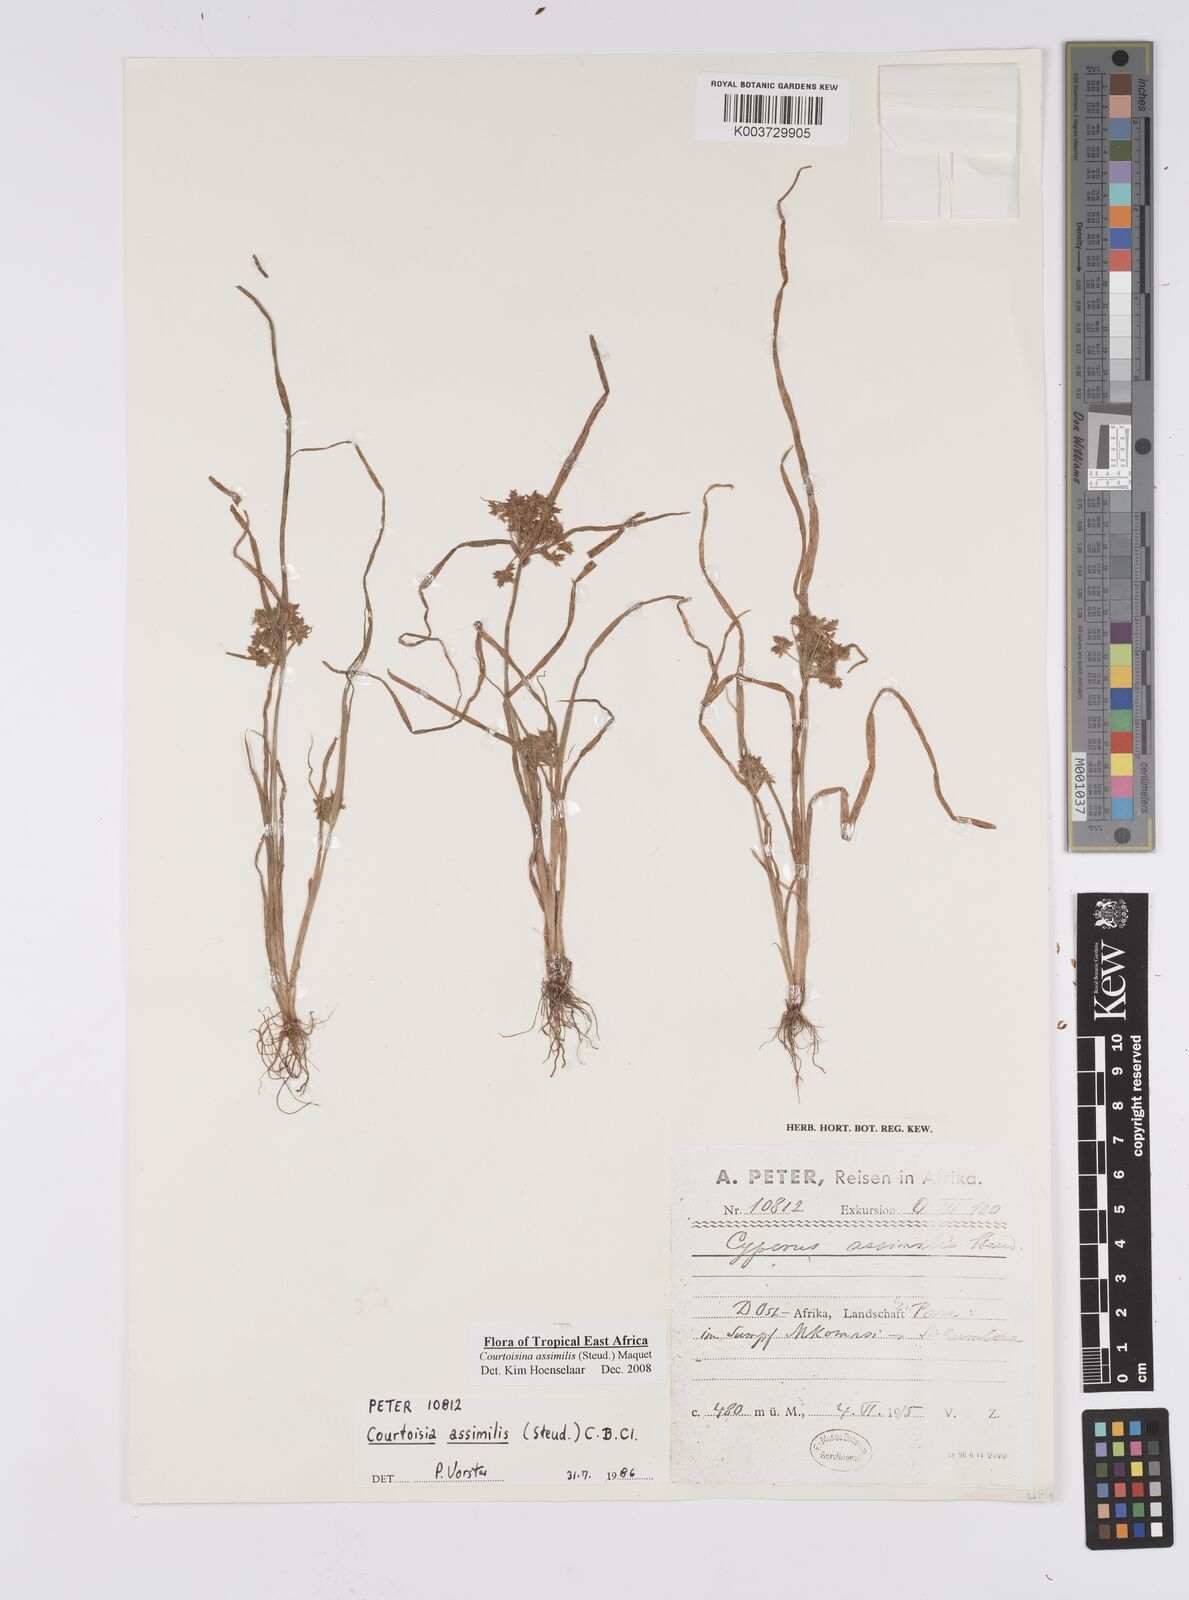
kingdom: Plantae
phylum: Tracheophyta
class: Liliopsida
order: Poales
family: Cyperaceae
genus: Cyperus
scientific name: Cyperus assimilis
